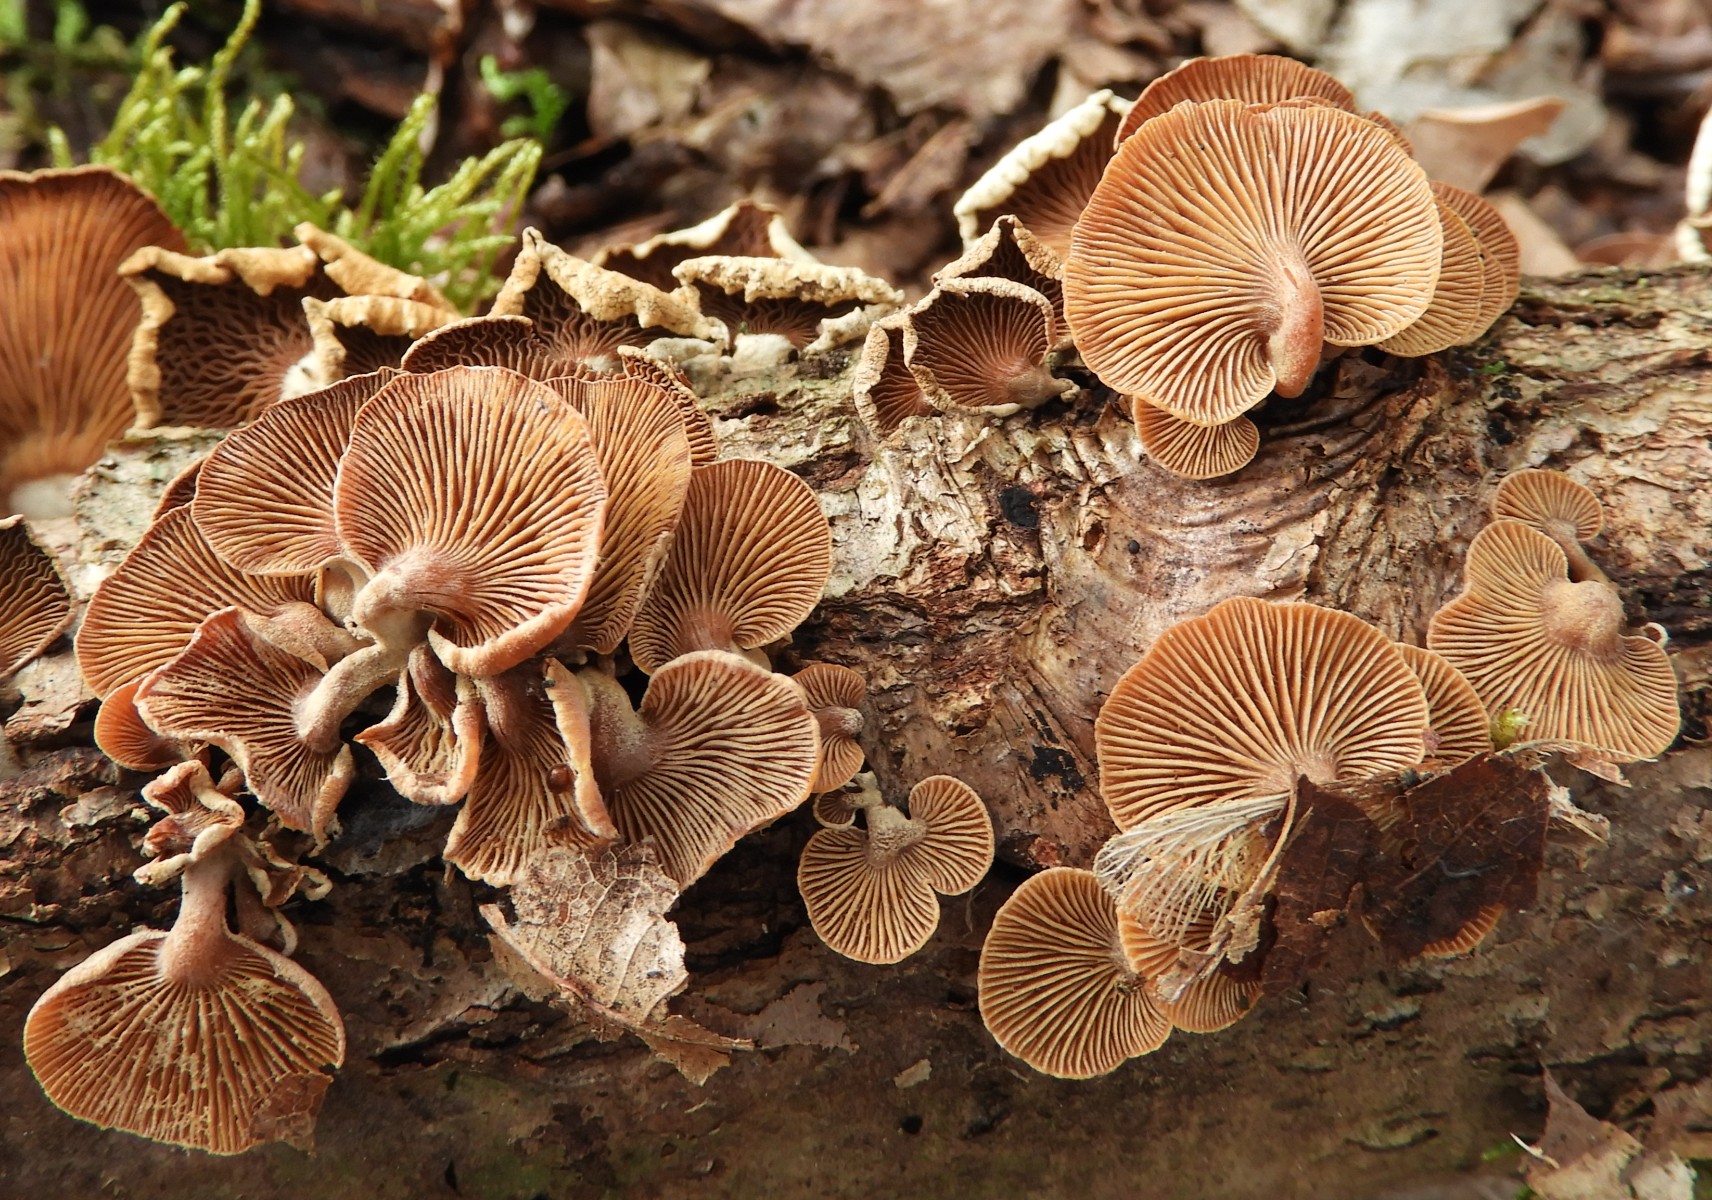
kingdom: Fungi
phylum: Basidiomycota
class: Agaricomycetes
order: Agaricales
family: Mycenaceae
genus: Panellus
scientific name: Panellus stipticus
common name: kliddet epaulethat
